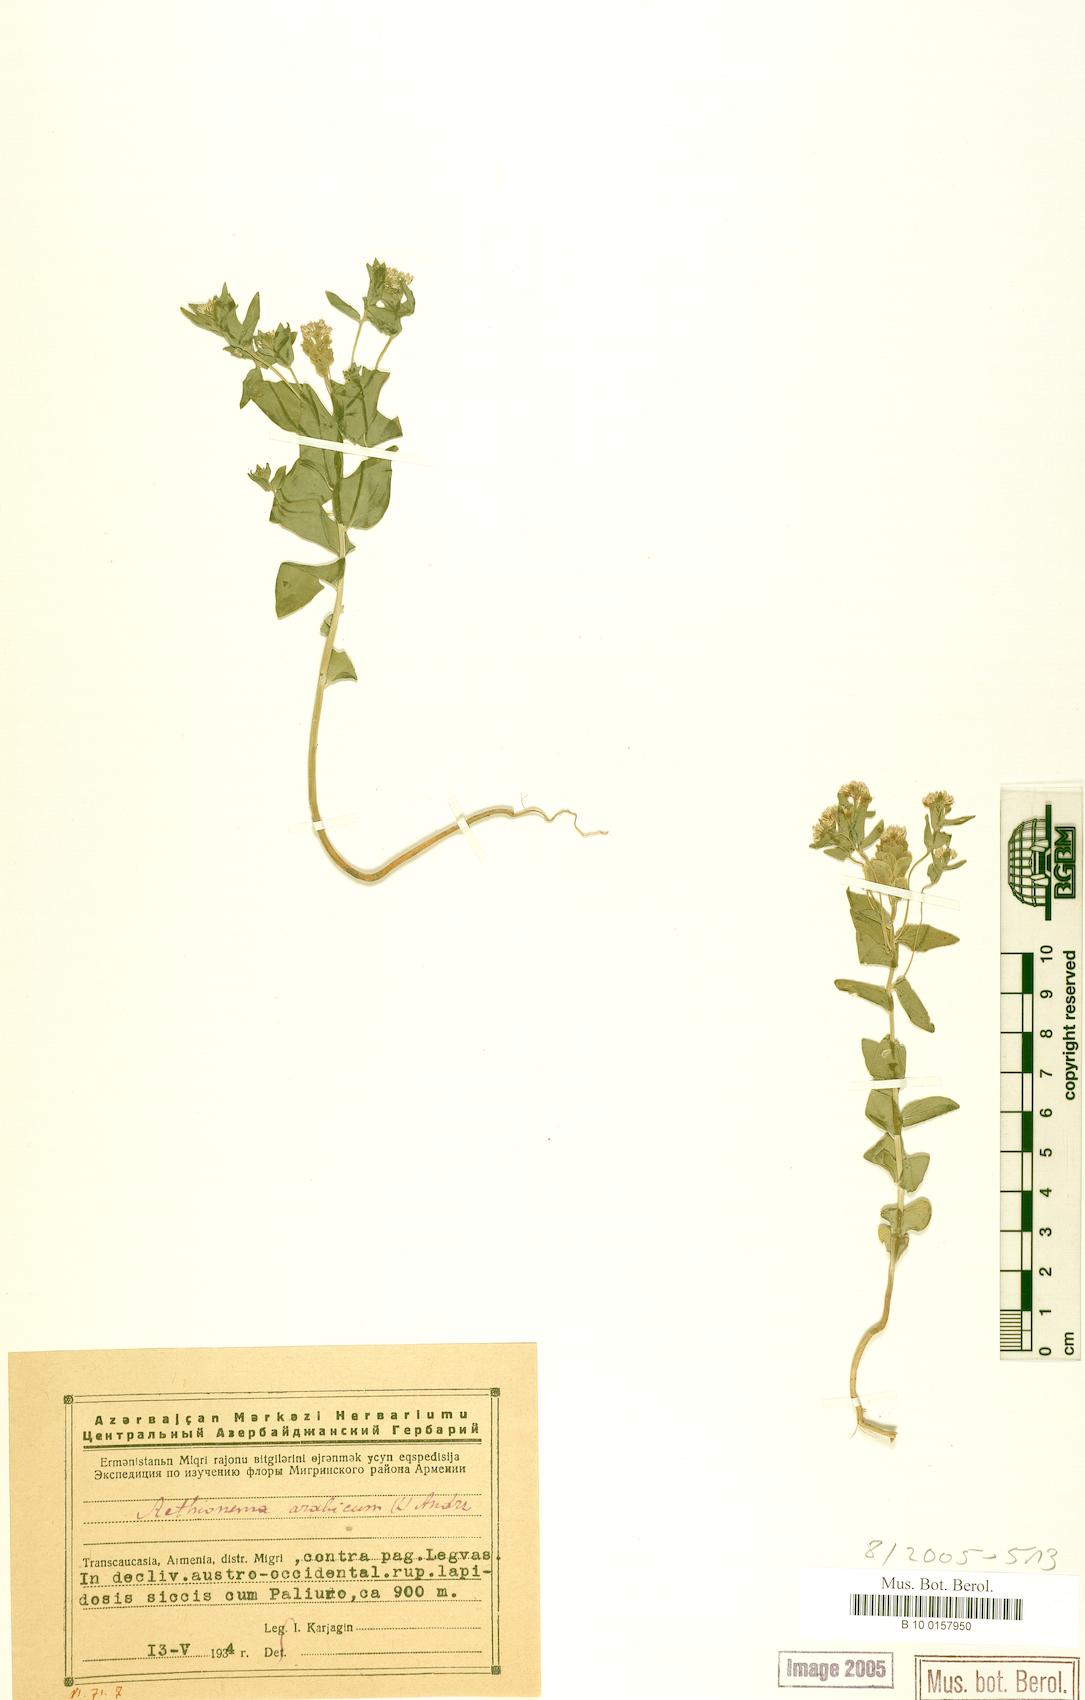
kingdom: Plantae
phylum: Tracheophyta
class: Magnoliopsida
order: Brassicales
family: Brassicaceae
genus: Aethionema
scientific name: Aethionema arabicum
